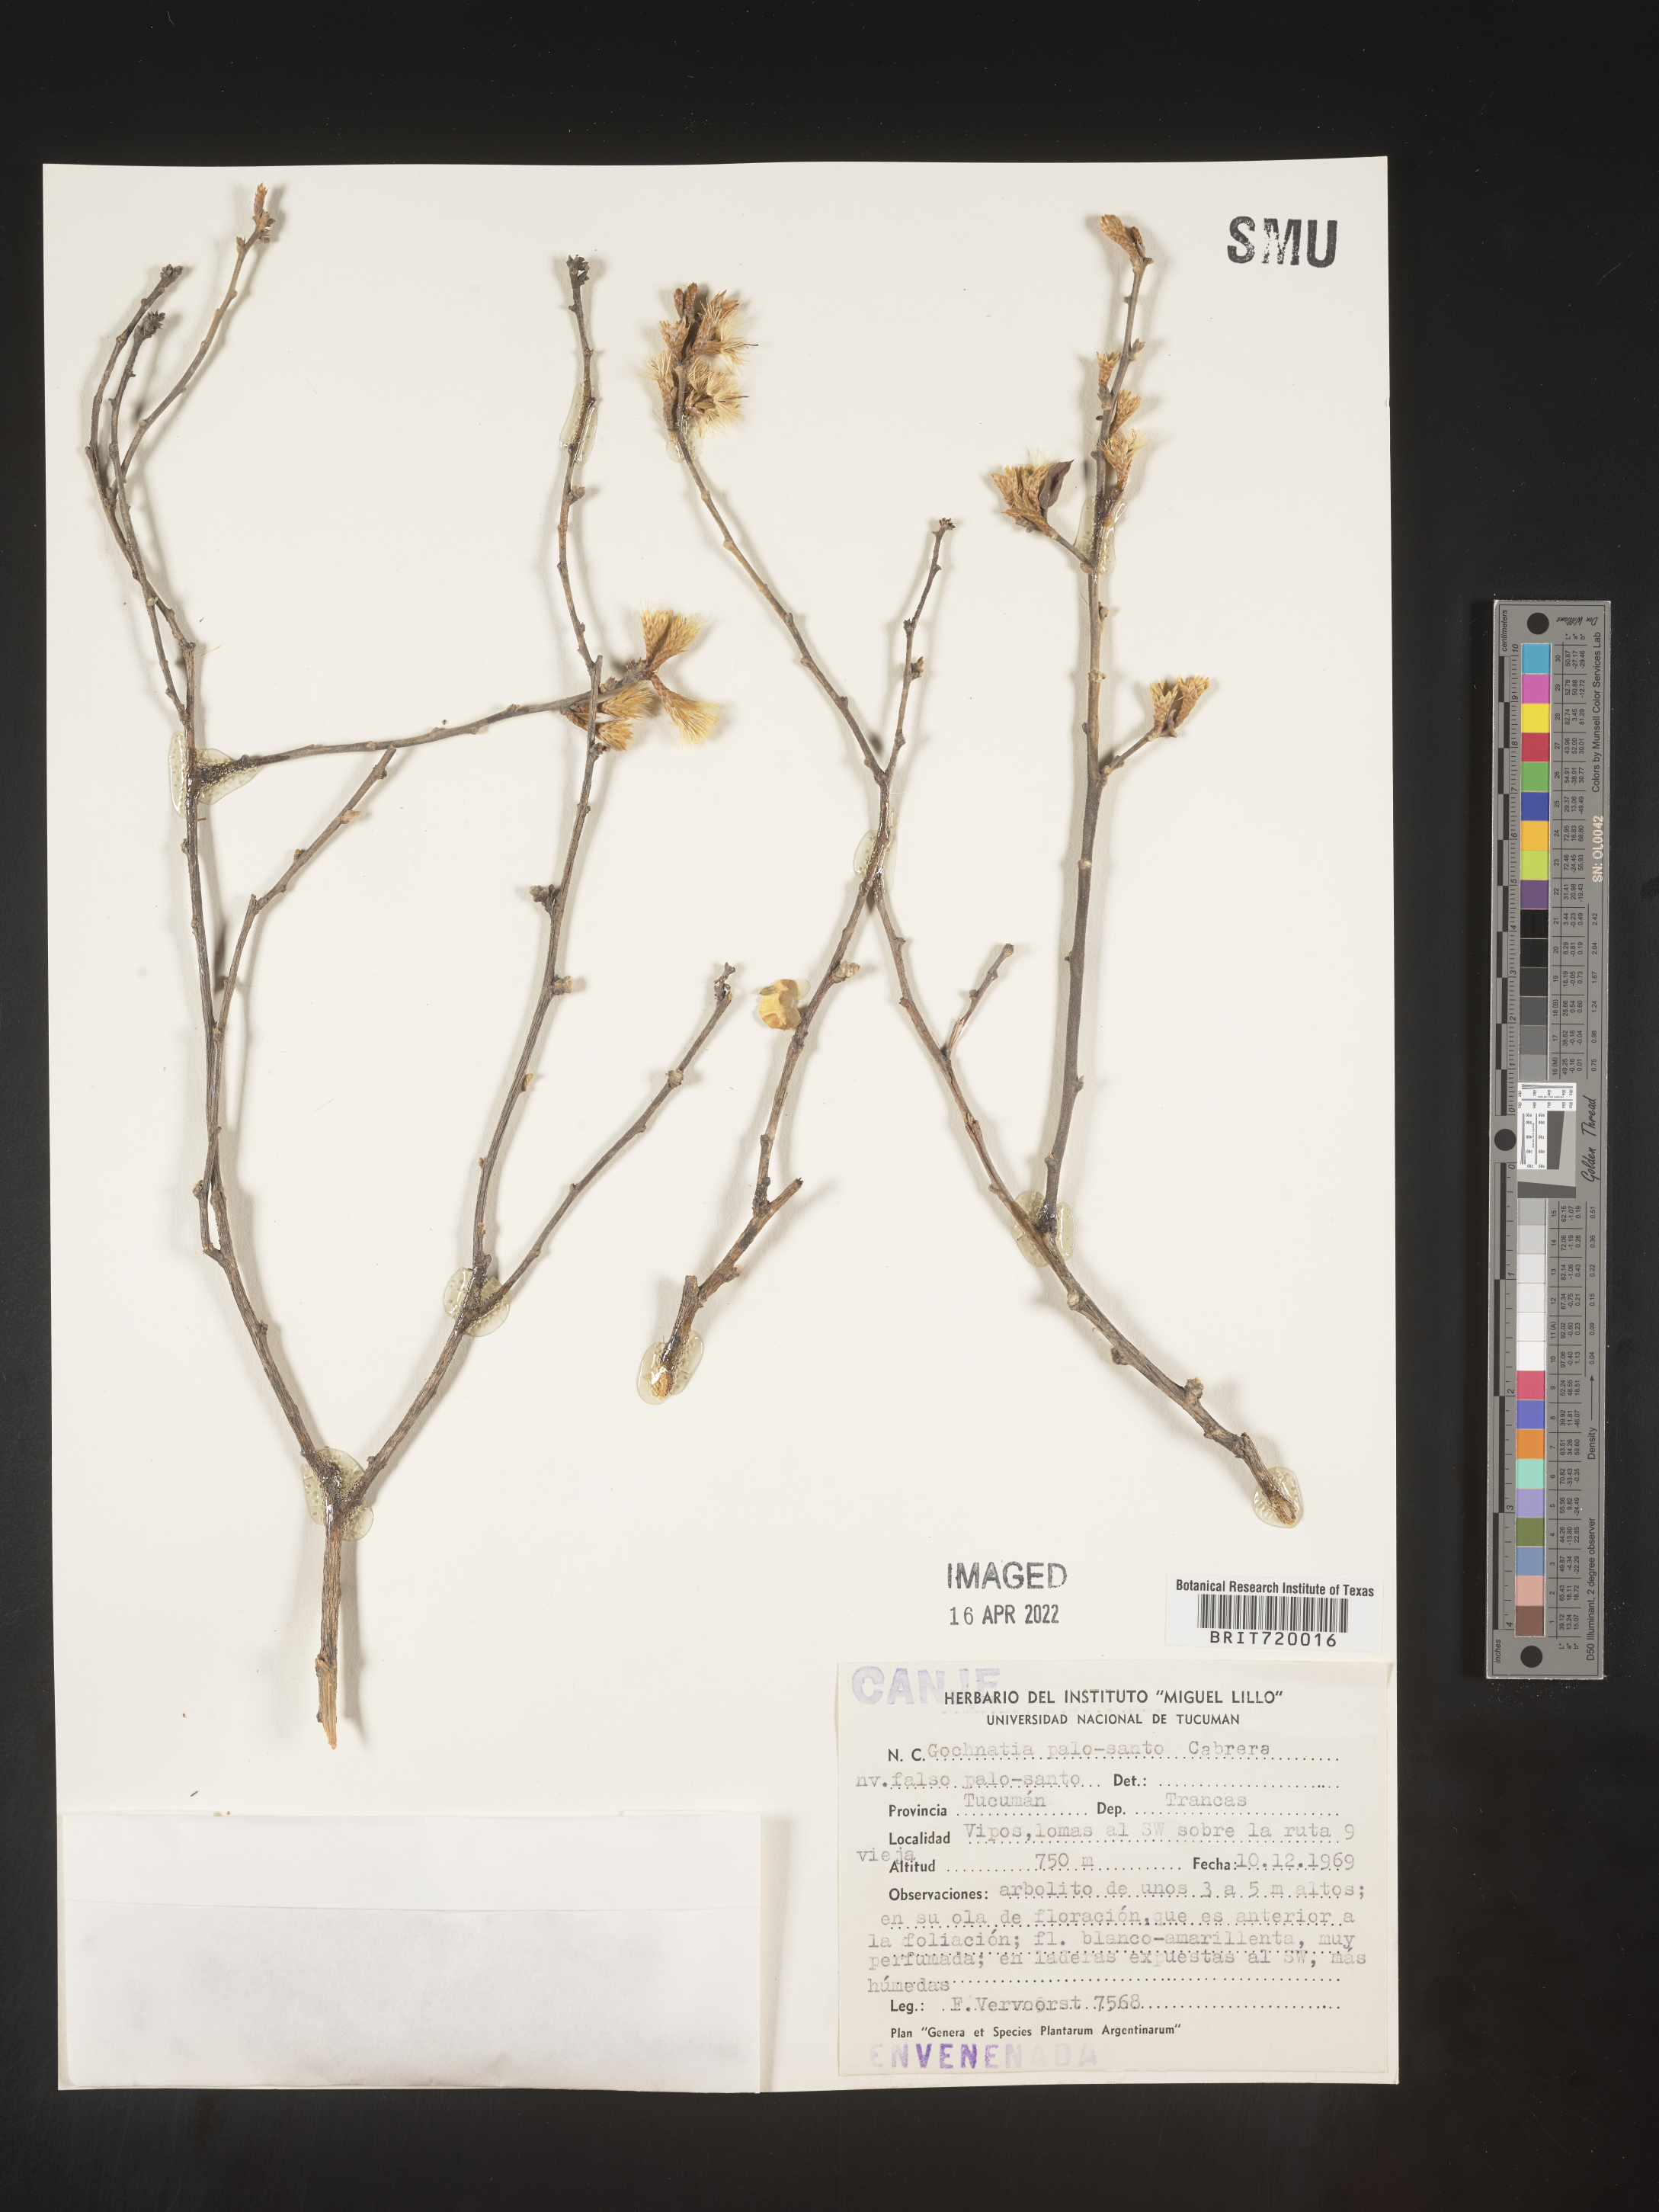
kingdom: Plantae
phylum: Tracheophyta
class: Magnoliopsida
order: Asterales
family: Asteraceae
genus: Gochnatia
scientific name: Gochnatia
